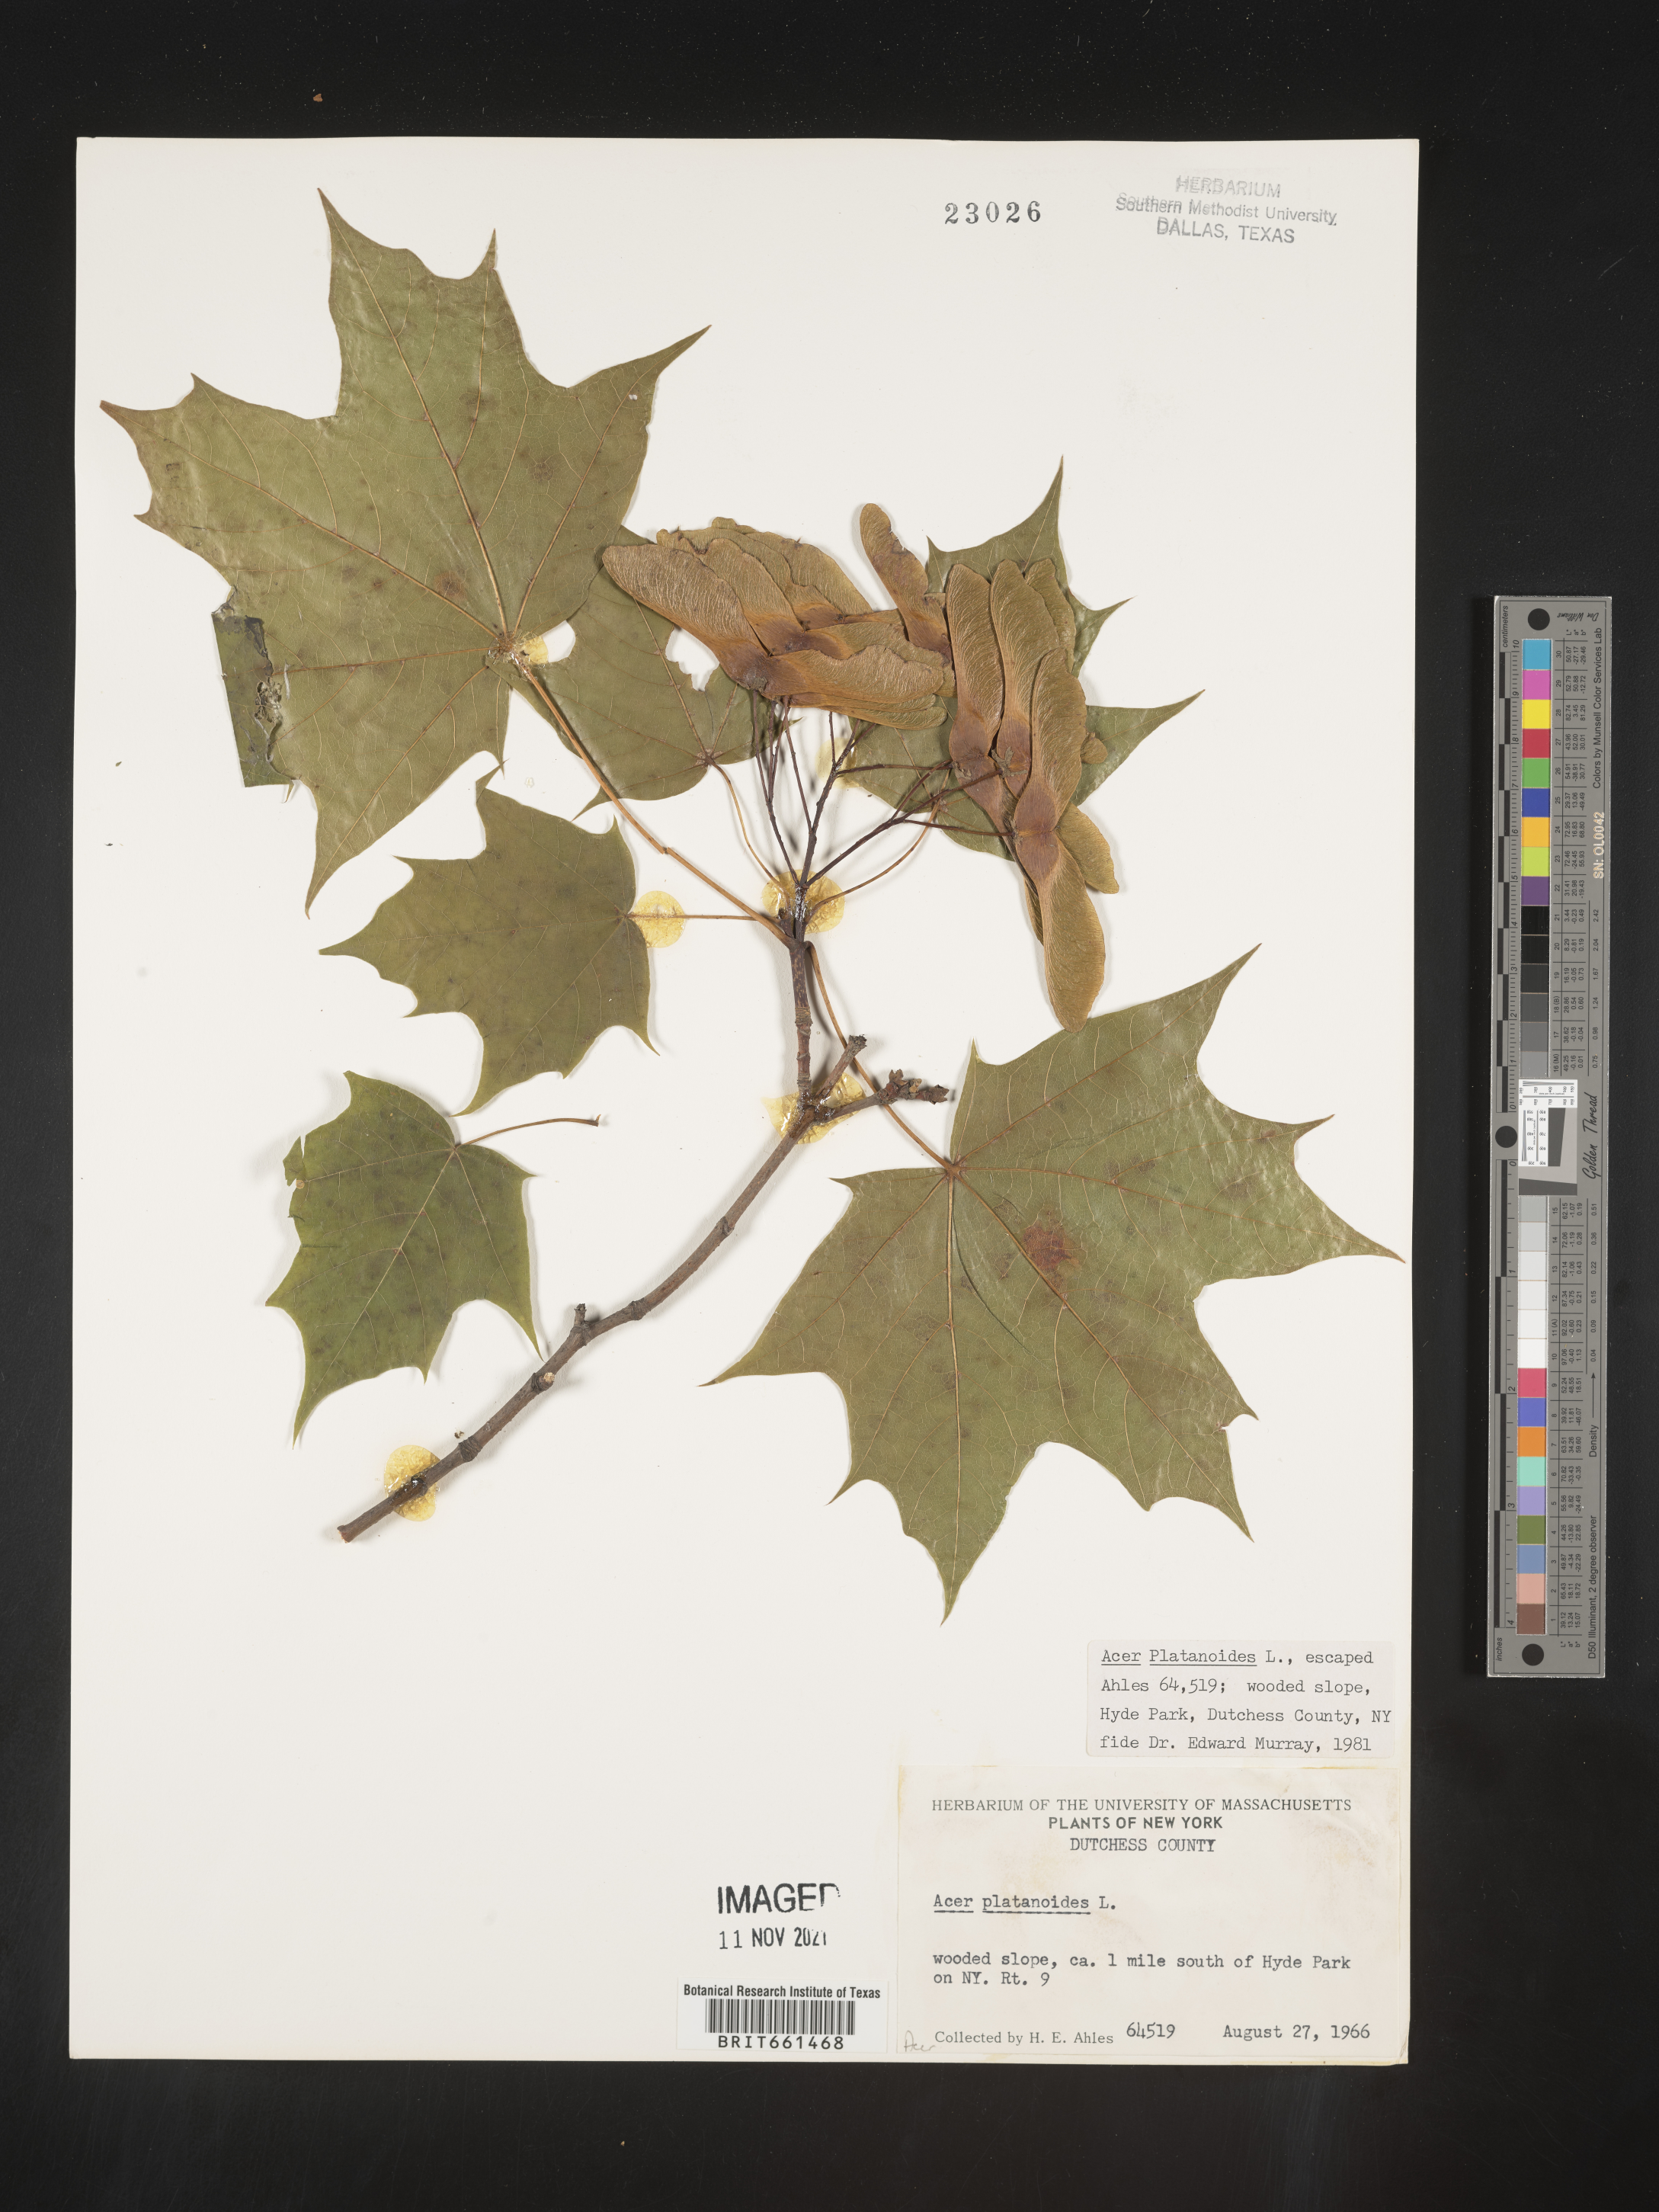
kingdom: Plantae
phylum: Tracheophyta
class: Magnoliopsida
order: Sapindales
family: Sapindaceae
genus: Acer
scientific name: Acer
